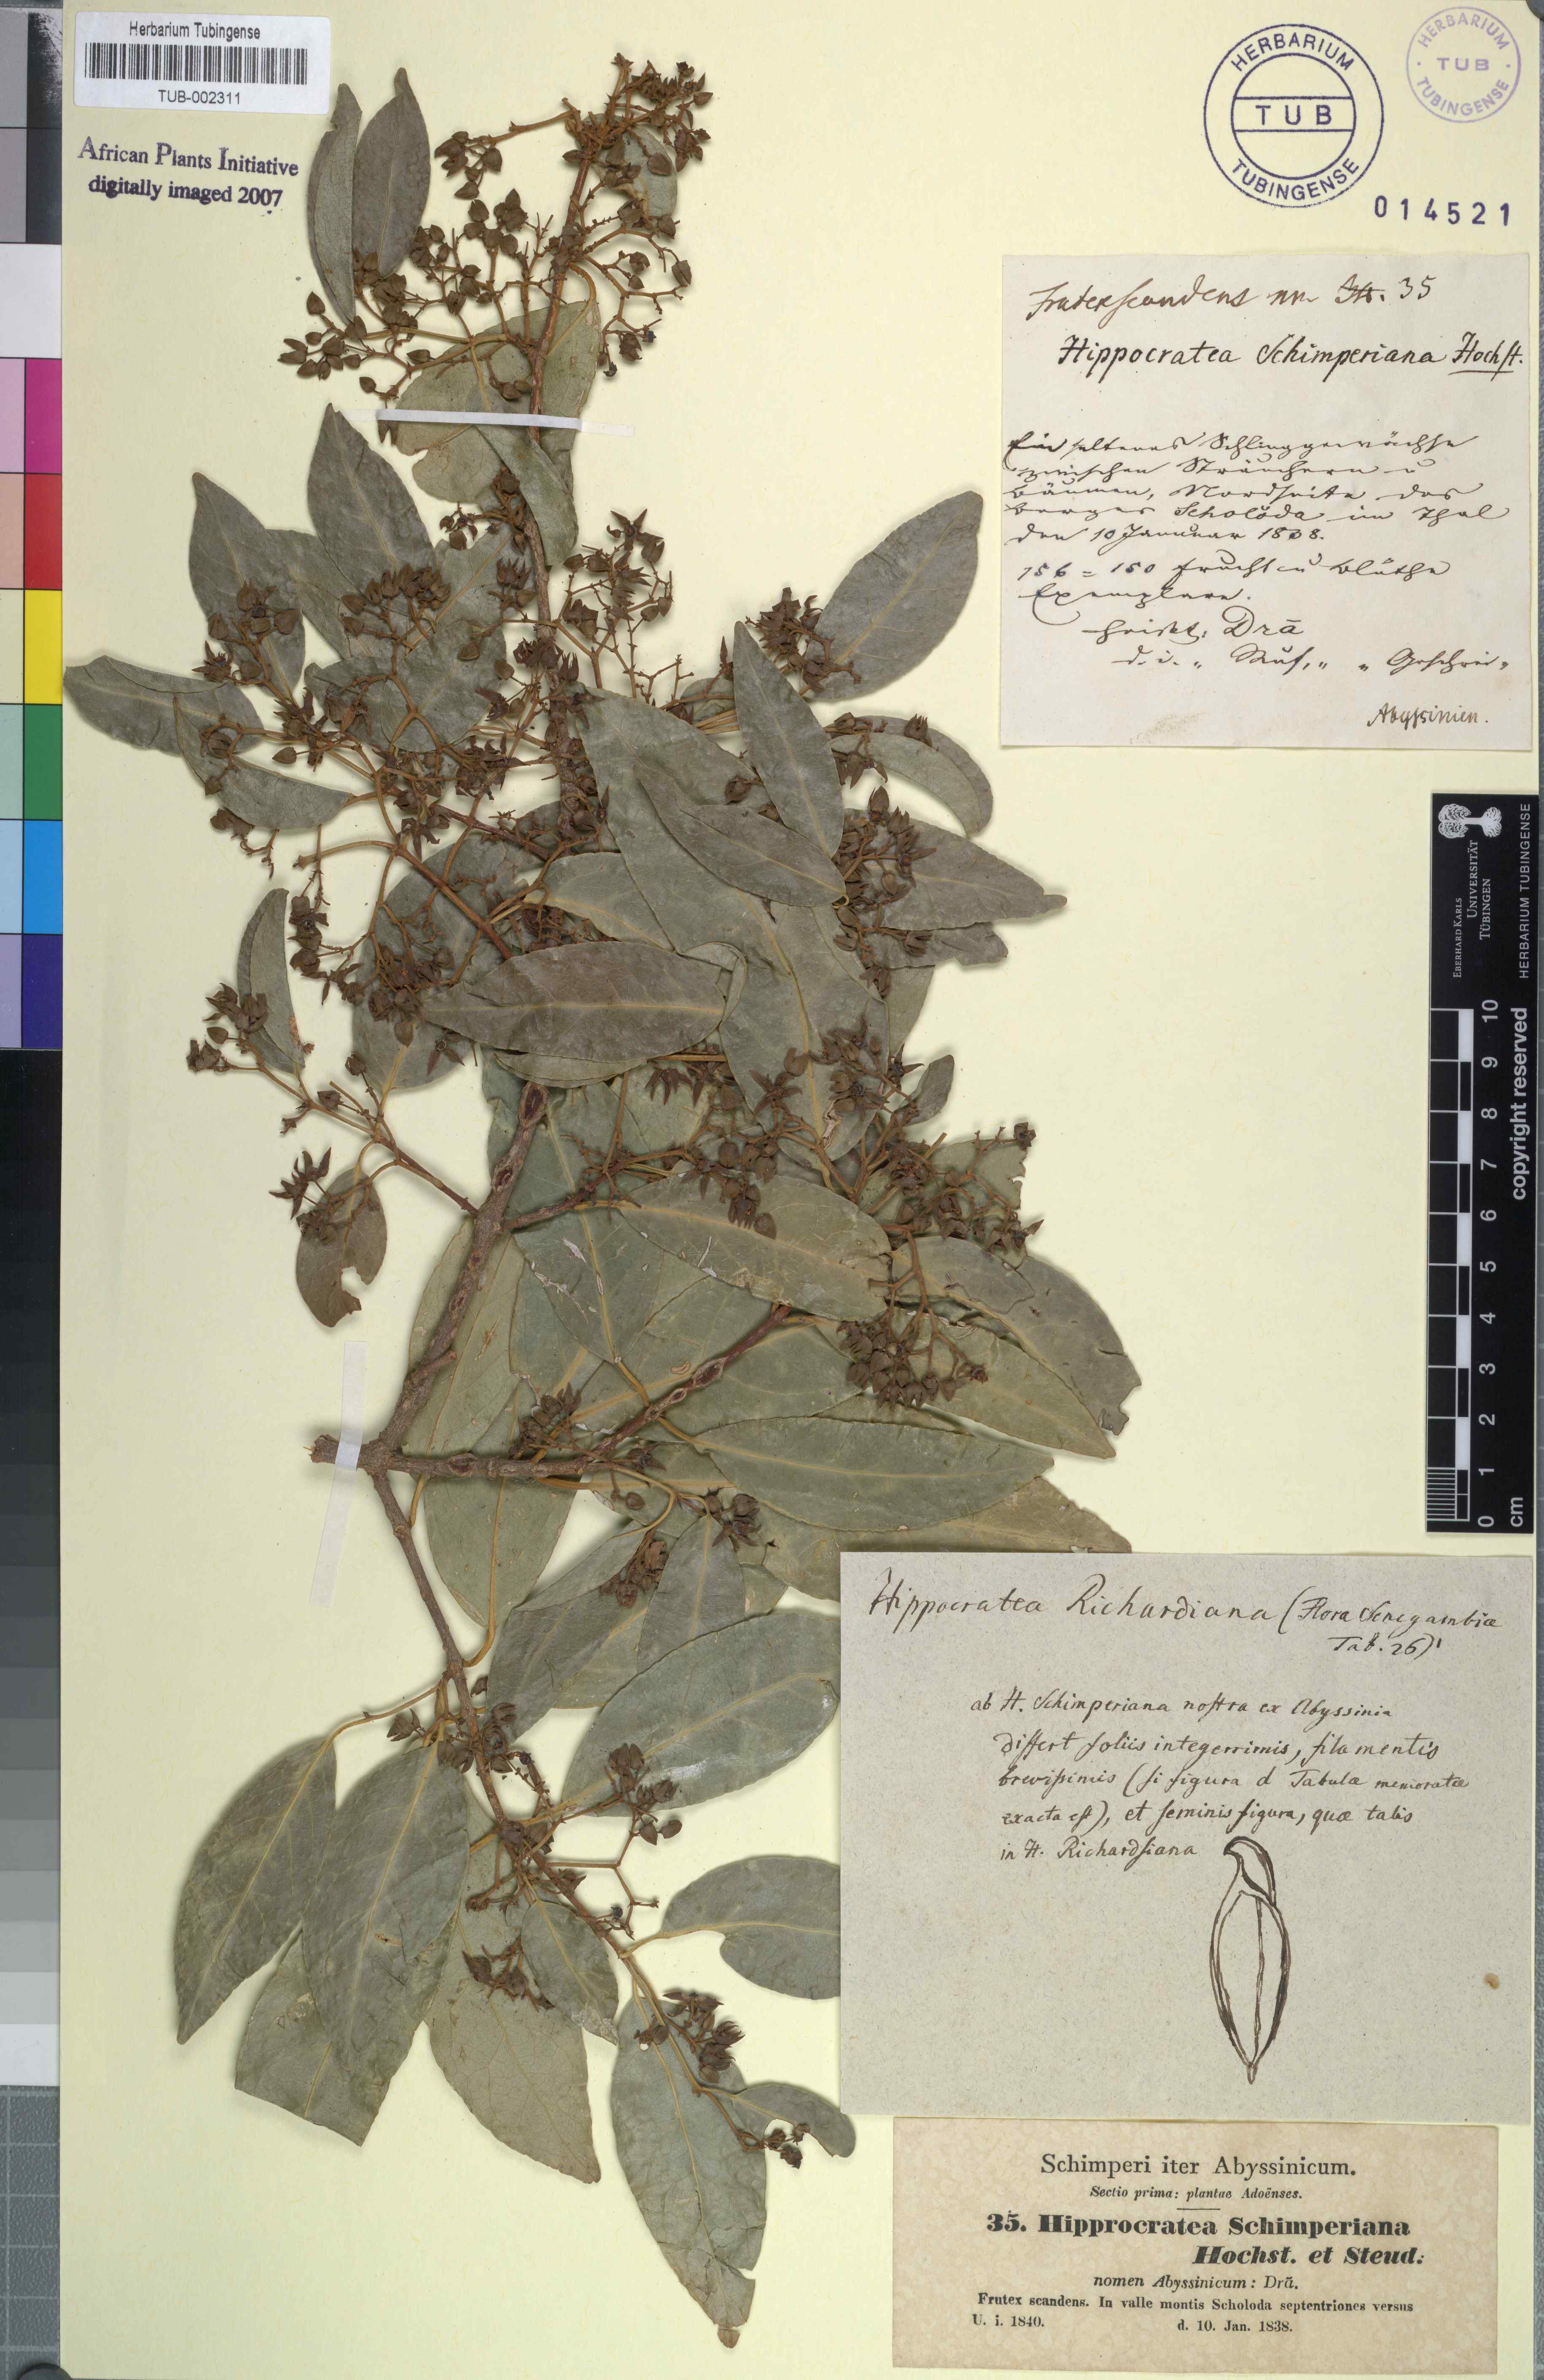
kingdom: Plantae
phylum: Tracheophyta
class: Magnoliopsida
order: Celastrales
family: Celastraceae
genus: Loeseneriella
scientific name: Loeseneriella obtusifolia
